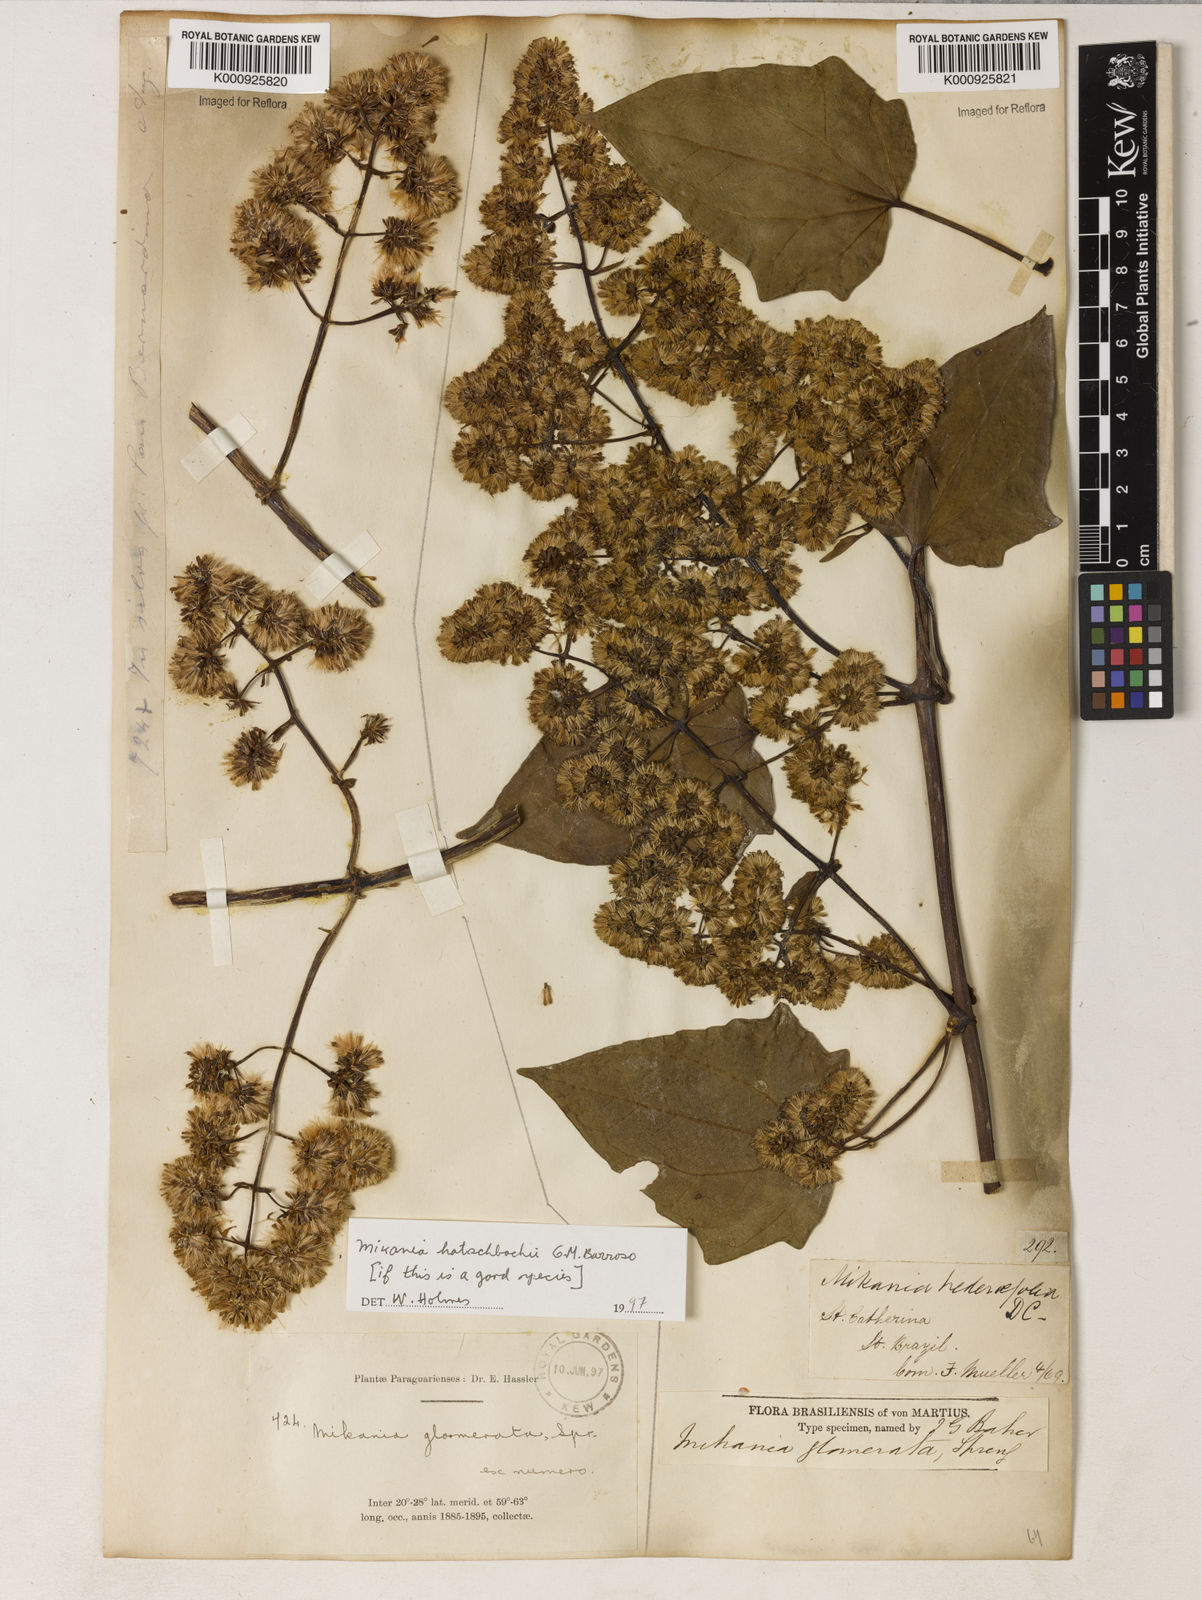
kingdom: Plantae
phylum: Tracheophyta
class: Magnoliopsida
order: Asterales
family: Asteraceae
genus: Mikania
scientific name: Mikania glomerata
